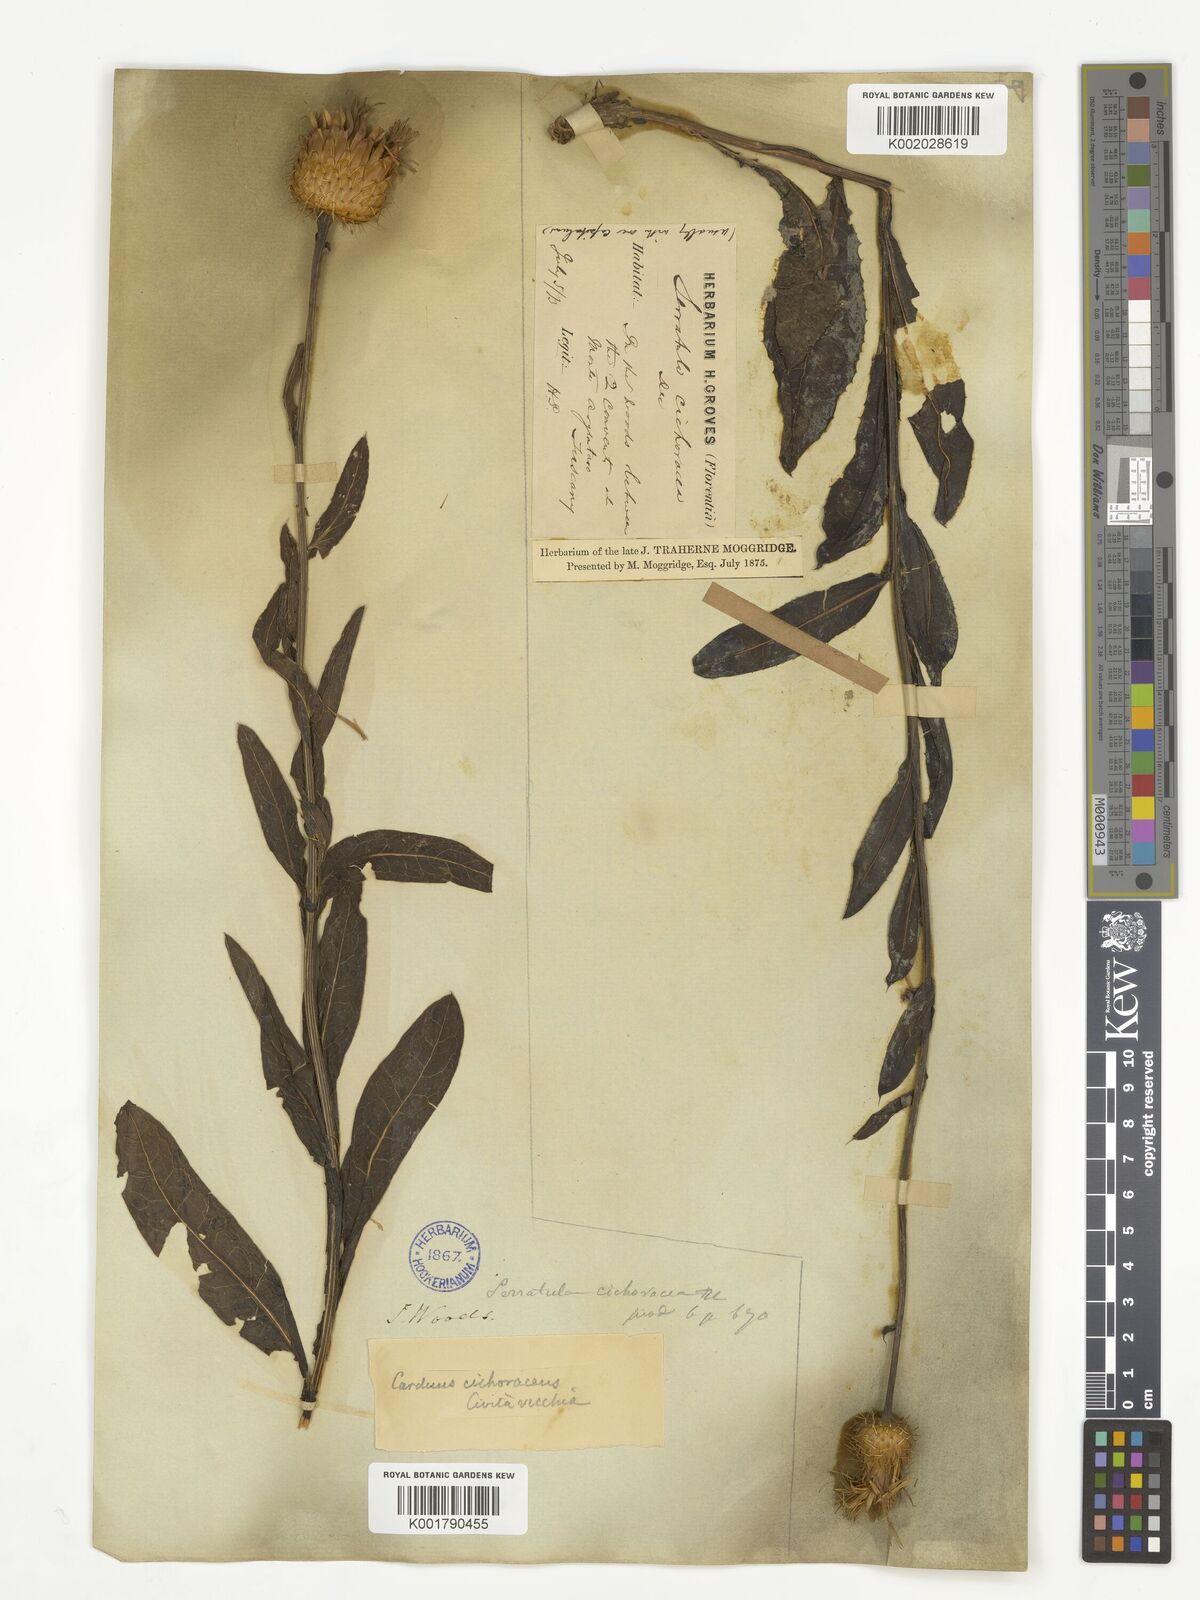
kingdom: Plantae
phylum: Tracheophyta
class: Magnoliopsida
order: Asterales
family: Asteraceae
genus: Klasea
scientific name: Klasea flavescens
